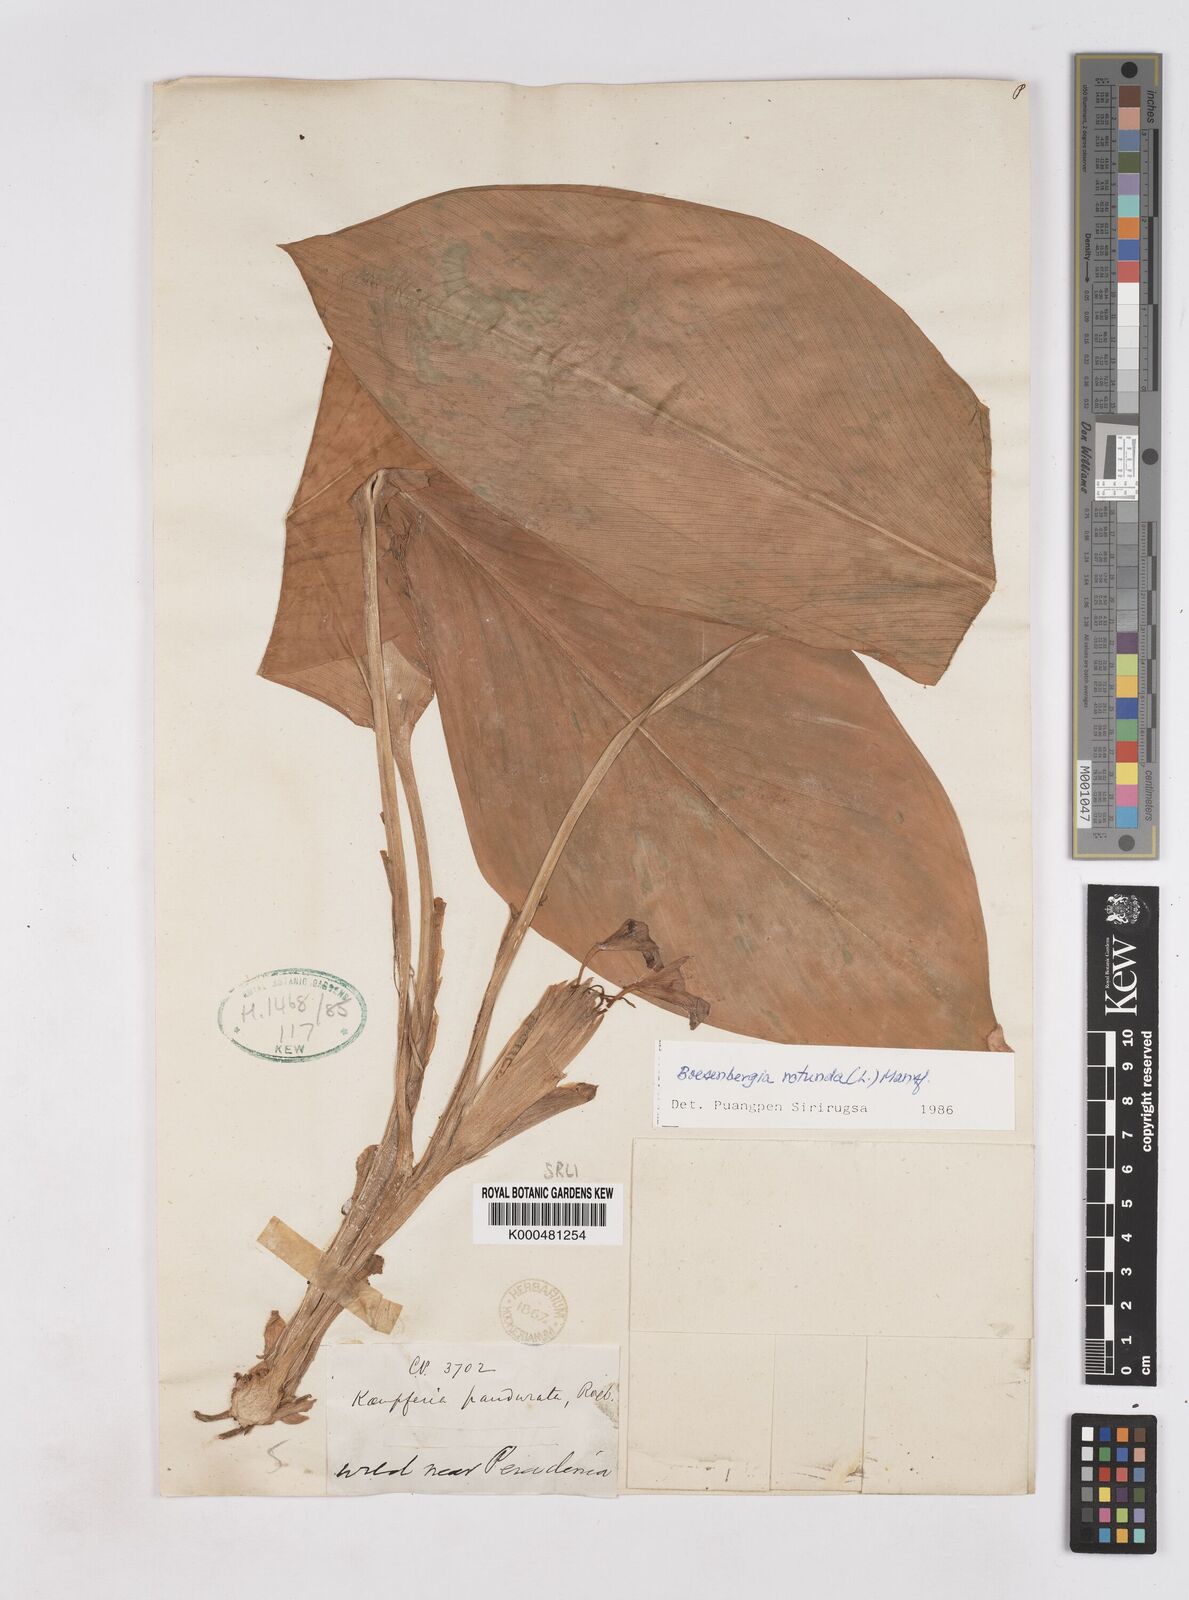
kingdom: Plantae
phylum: Tracheophyta
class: Liliopsida
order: Zingiberales
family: Zingiberaceae
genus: Boesenbergia
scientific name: Boesenbergia rotunda
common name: Chinese ginger
